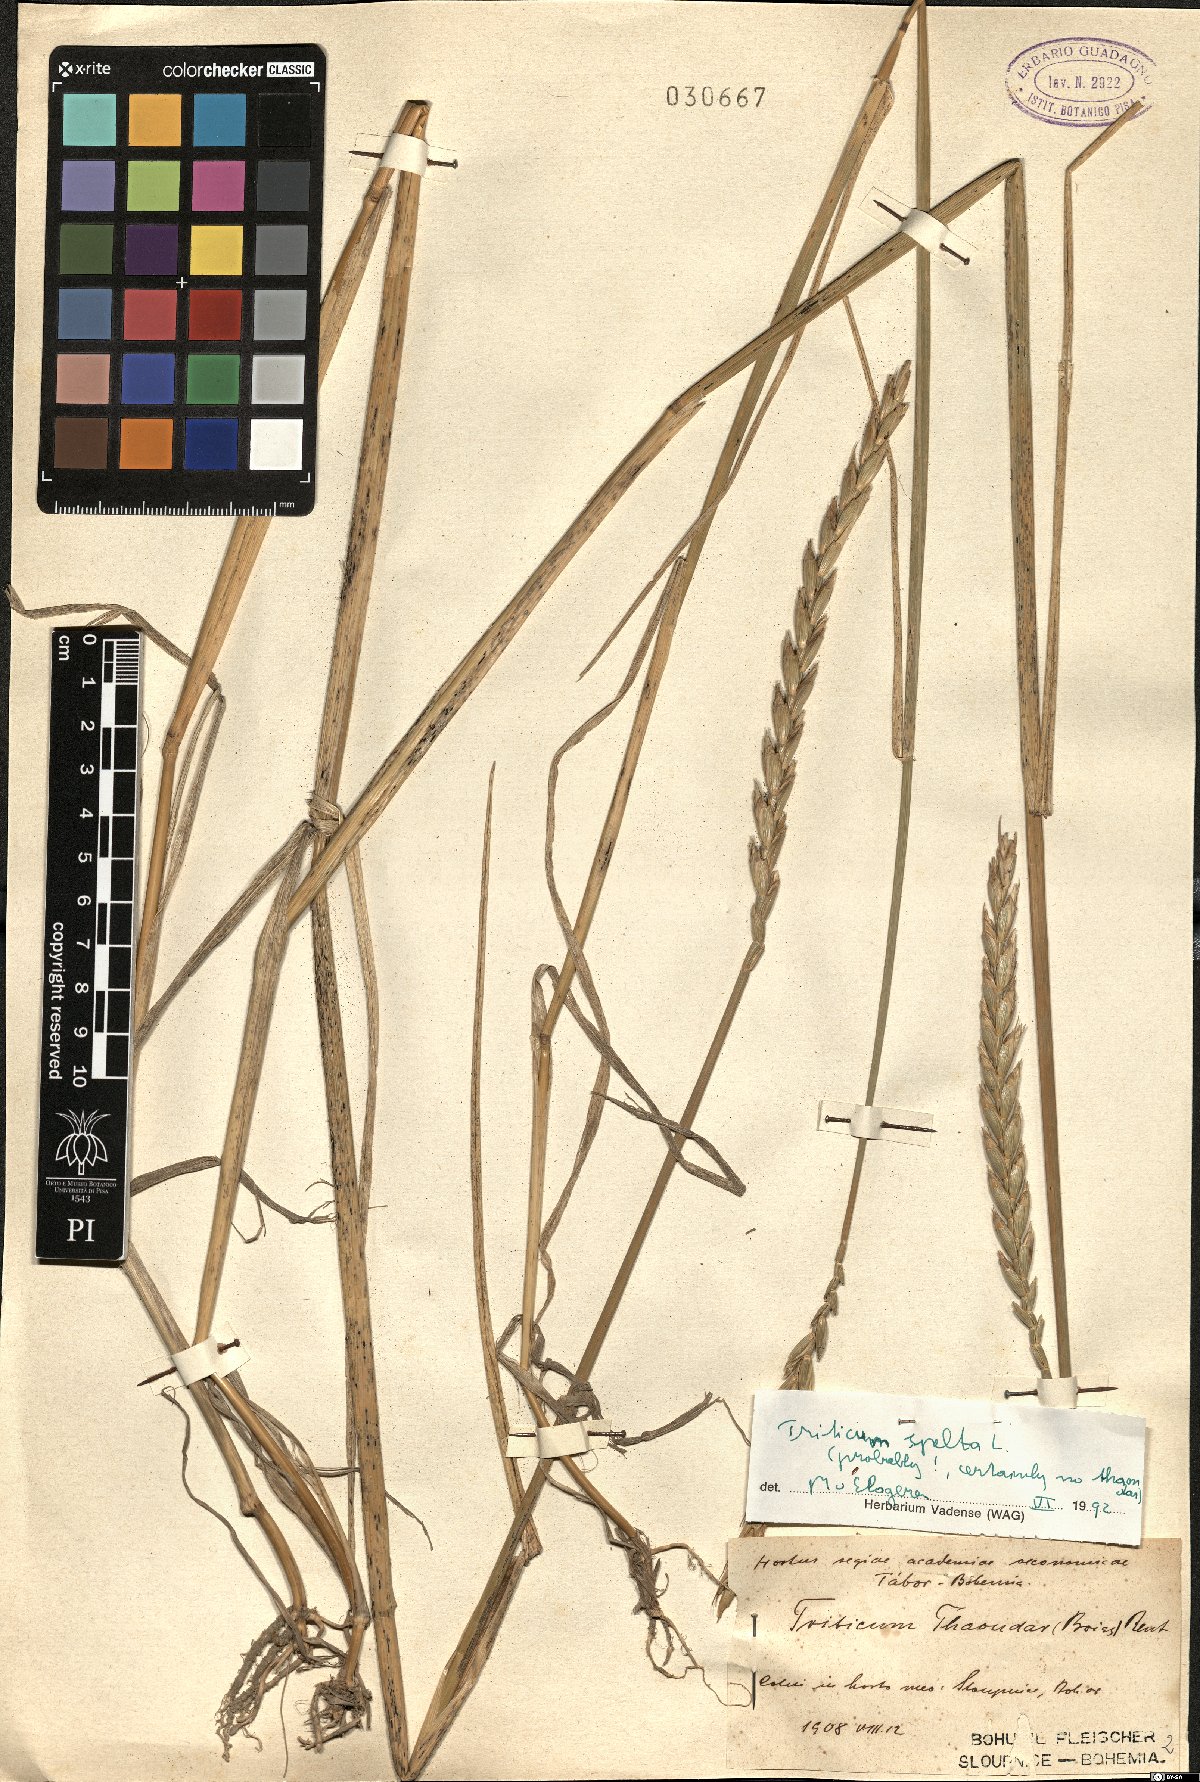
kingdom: Plantae
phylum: Tracheophyta
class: Liliopsida
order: Poales
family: Poaceae
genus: Triticum
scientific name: Triticum aestivum
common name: Common wheat
